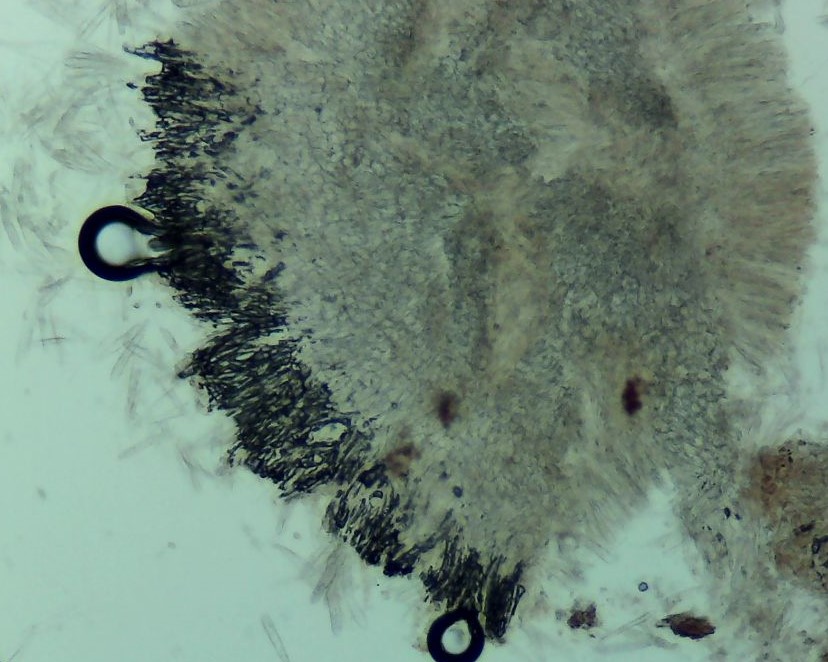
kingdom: Fungi
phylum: Ascomycota
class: Leotiomycetes
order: Helotiales
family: Hyaloscyphaceae
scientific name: Hyaloscyphaceae
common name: frynseskivefamilien
